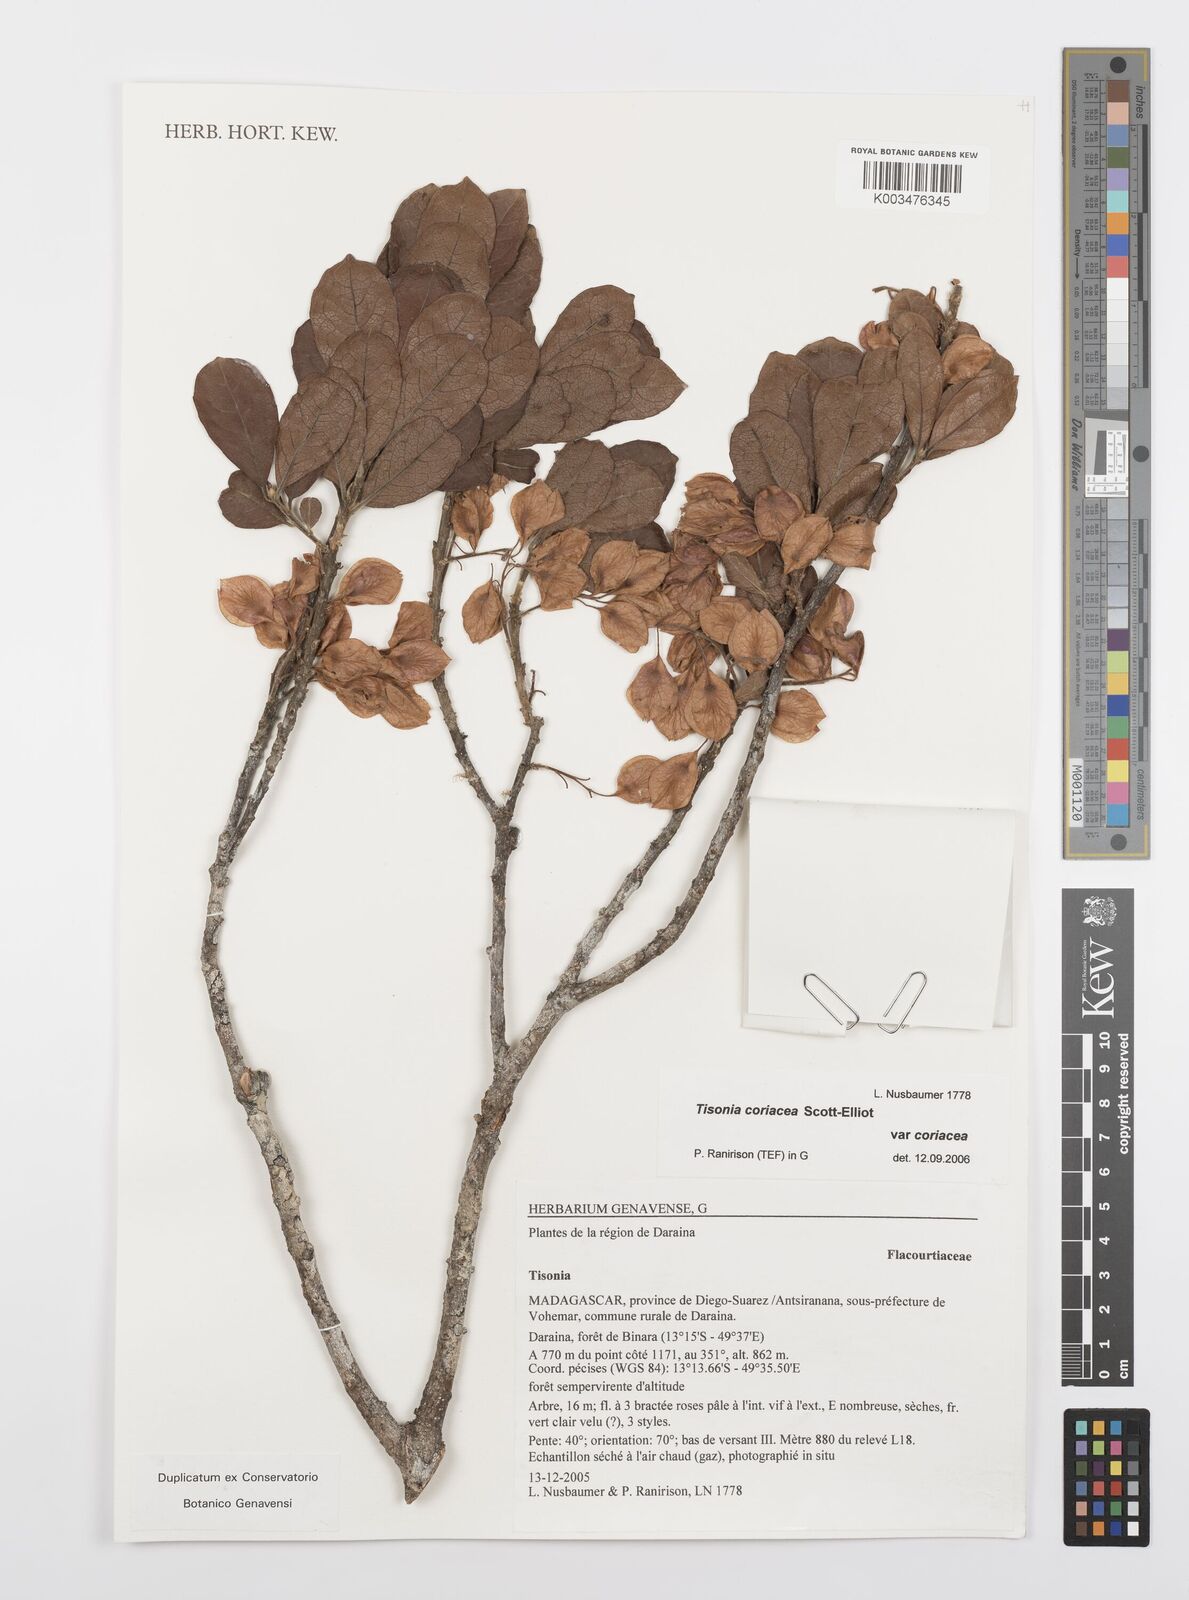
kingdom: Plantae
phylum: Tracheophyta
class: Magnoliopsida
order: Malpighiales
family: Salicaceae
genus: Tisonia
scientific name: Tisonia coriacea
